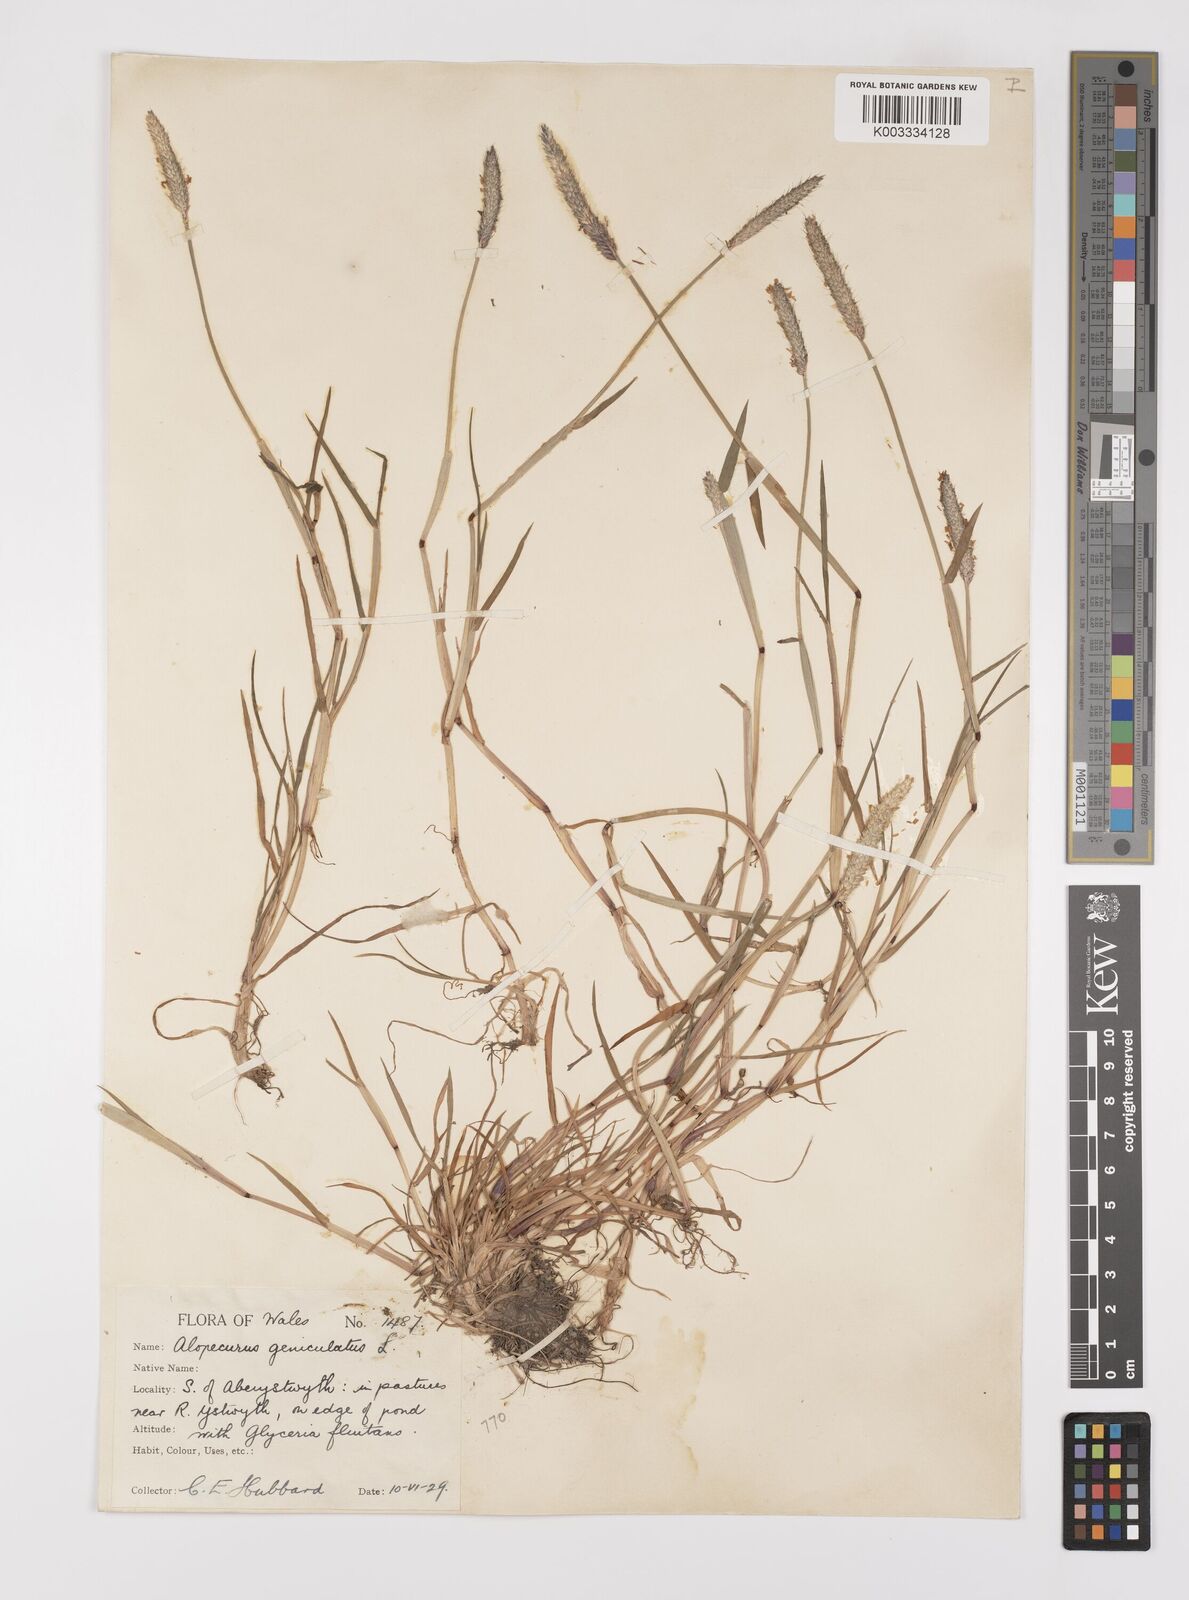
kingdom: Plantae
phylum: Tracheophyta
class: Liliopsida
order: Poales
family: Poaceae
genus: Alopecurus
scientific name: Alopecurus geniculatus
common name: Water foxtail
